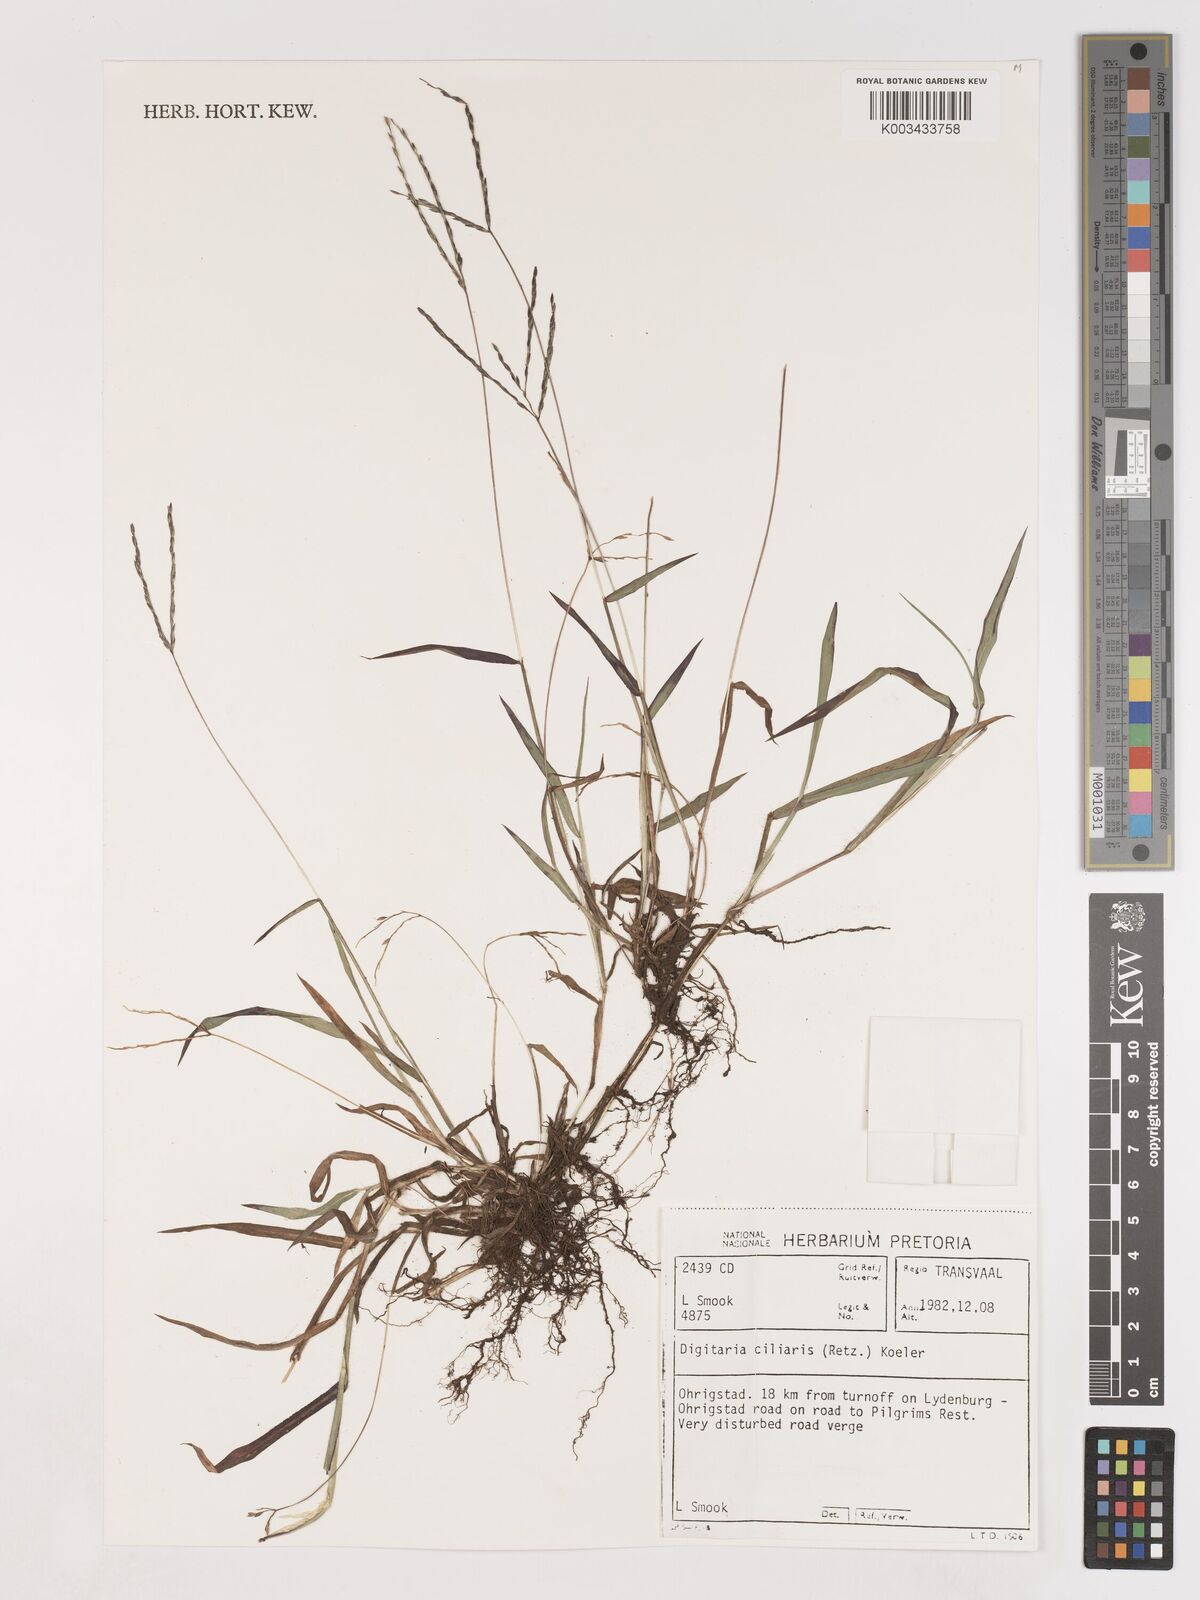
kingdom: Plantae
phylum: Tracheophyta
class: Liliopsida
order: Poales
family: Poaceae
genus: Digitaria
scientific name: Digitaria ciliaris
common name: Tropical finger-grass
